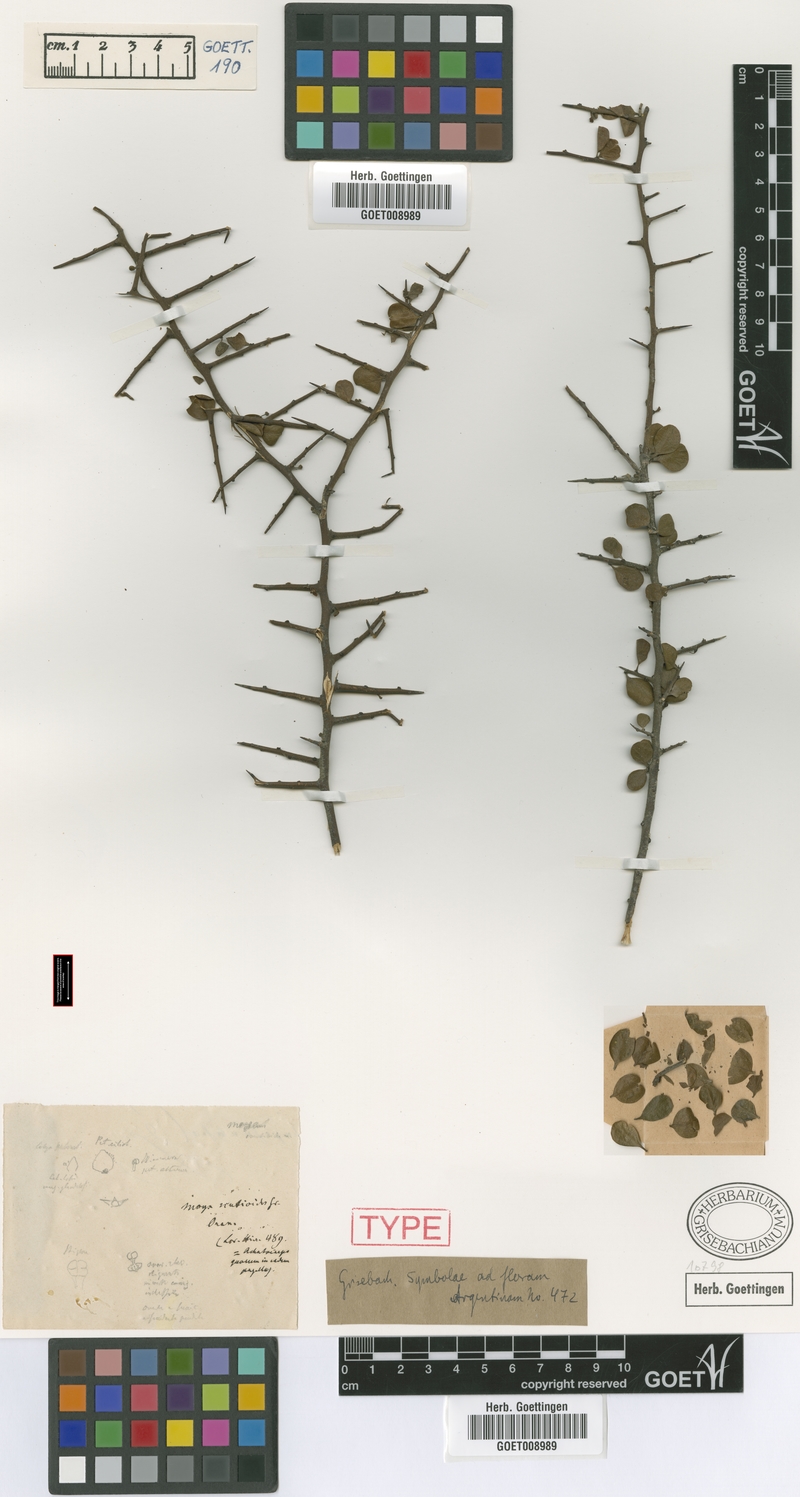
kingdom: Plantae
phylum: Tracheophyta
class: Magnoliopsida
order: Celastrales
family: Celastraceae
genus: Monteverdia
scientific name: Monteverdia spinosa
